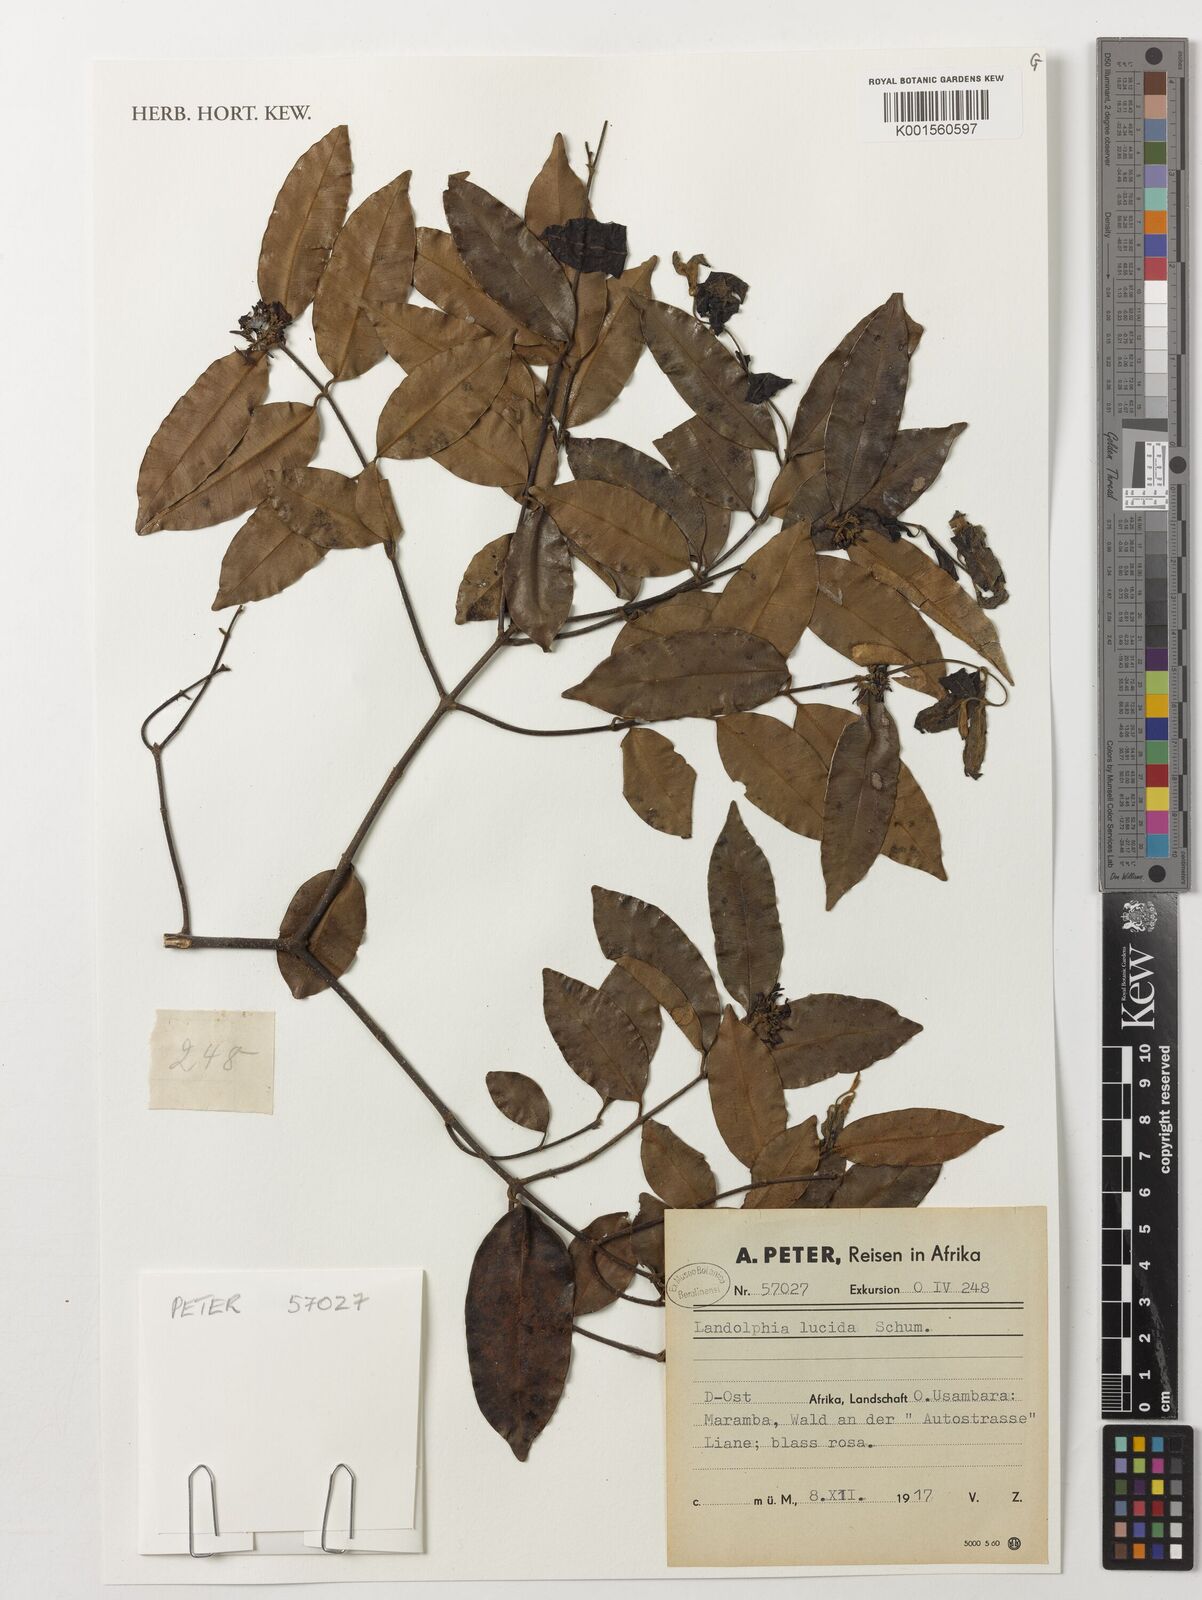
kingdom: Plantae
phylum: Tracheophyta
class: Magnoliopsida
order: Gentianales
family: Apocynaceae
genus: Dictyophleba
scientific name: Dictyophleba lucida
